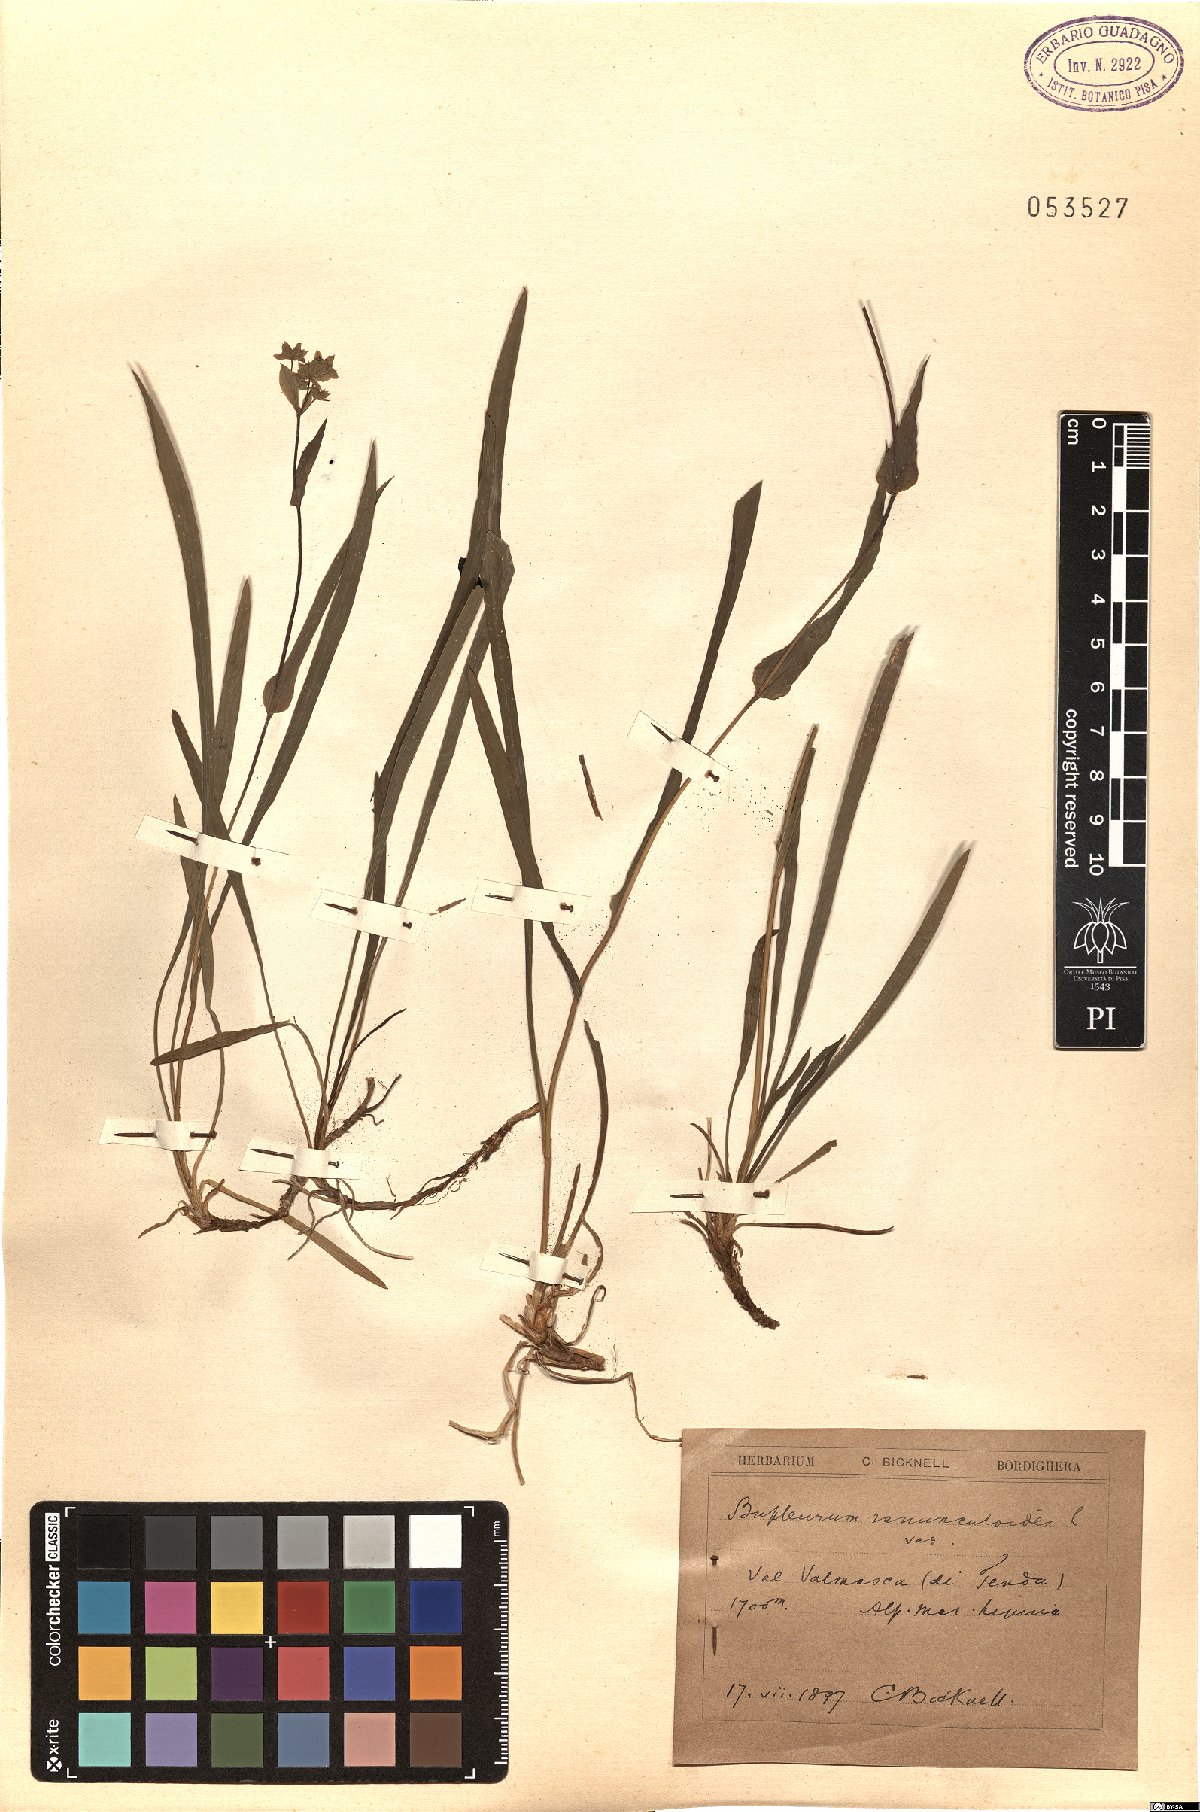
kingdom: Plantae
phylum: Tracheophyta
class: Magnoliopsida
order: Apiales
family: Apiaceae
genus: Bupleurum
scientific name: Bupleurum ranunculoides
